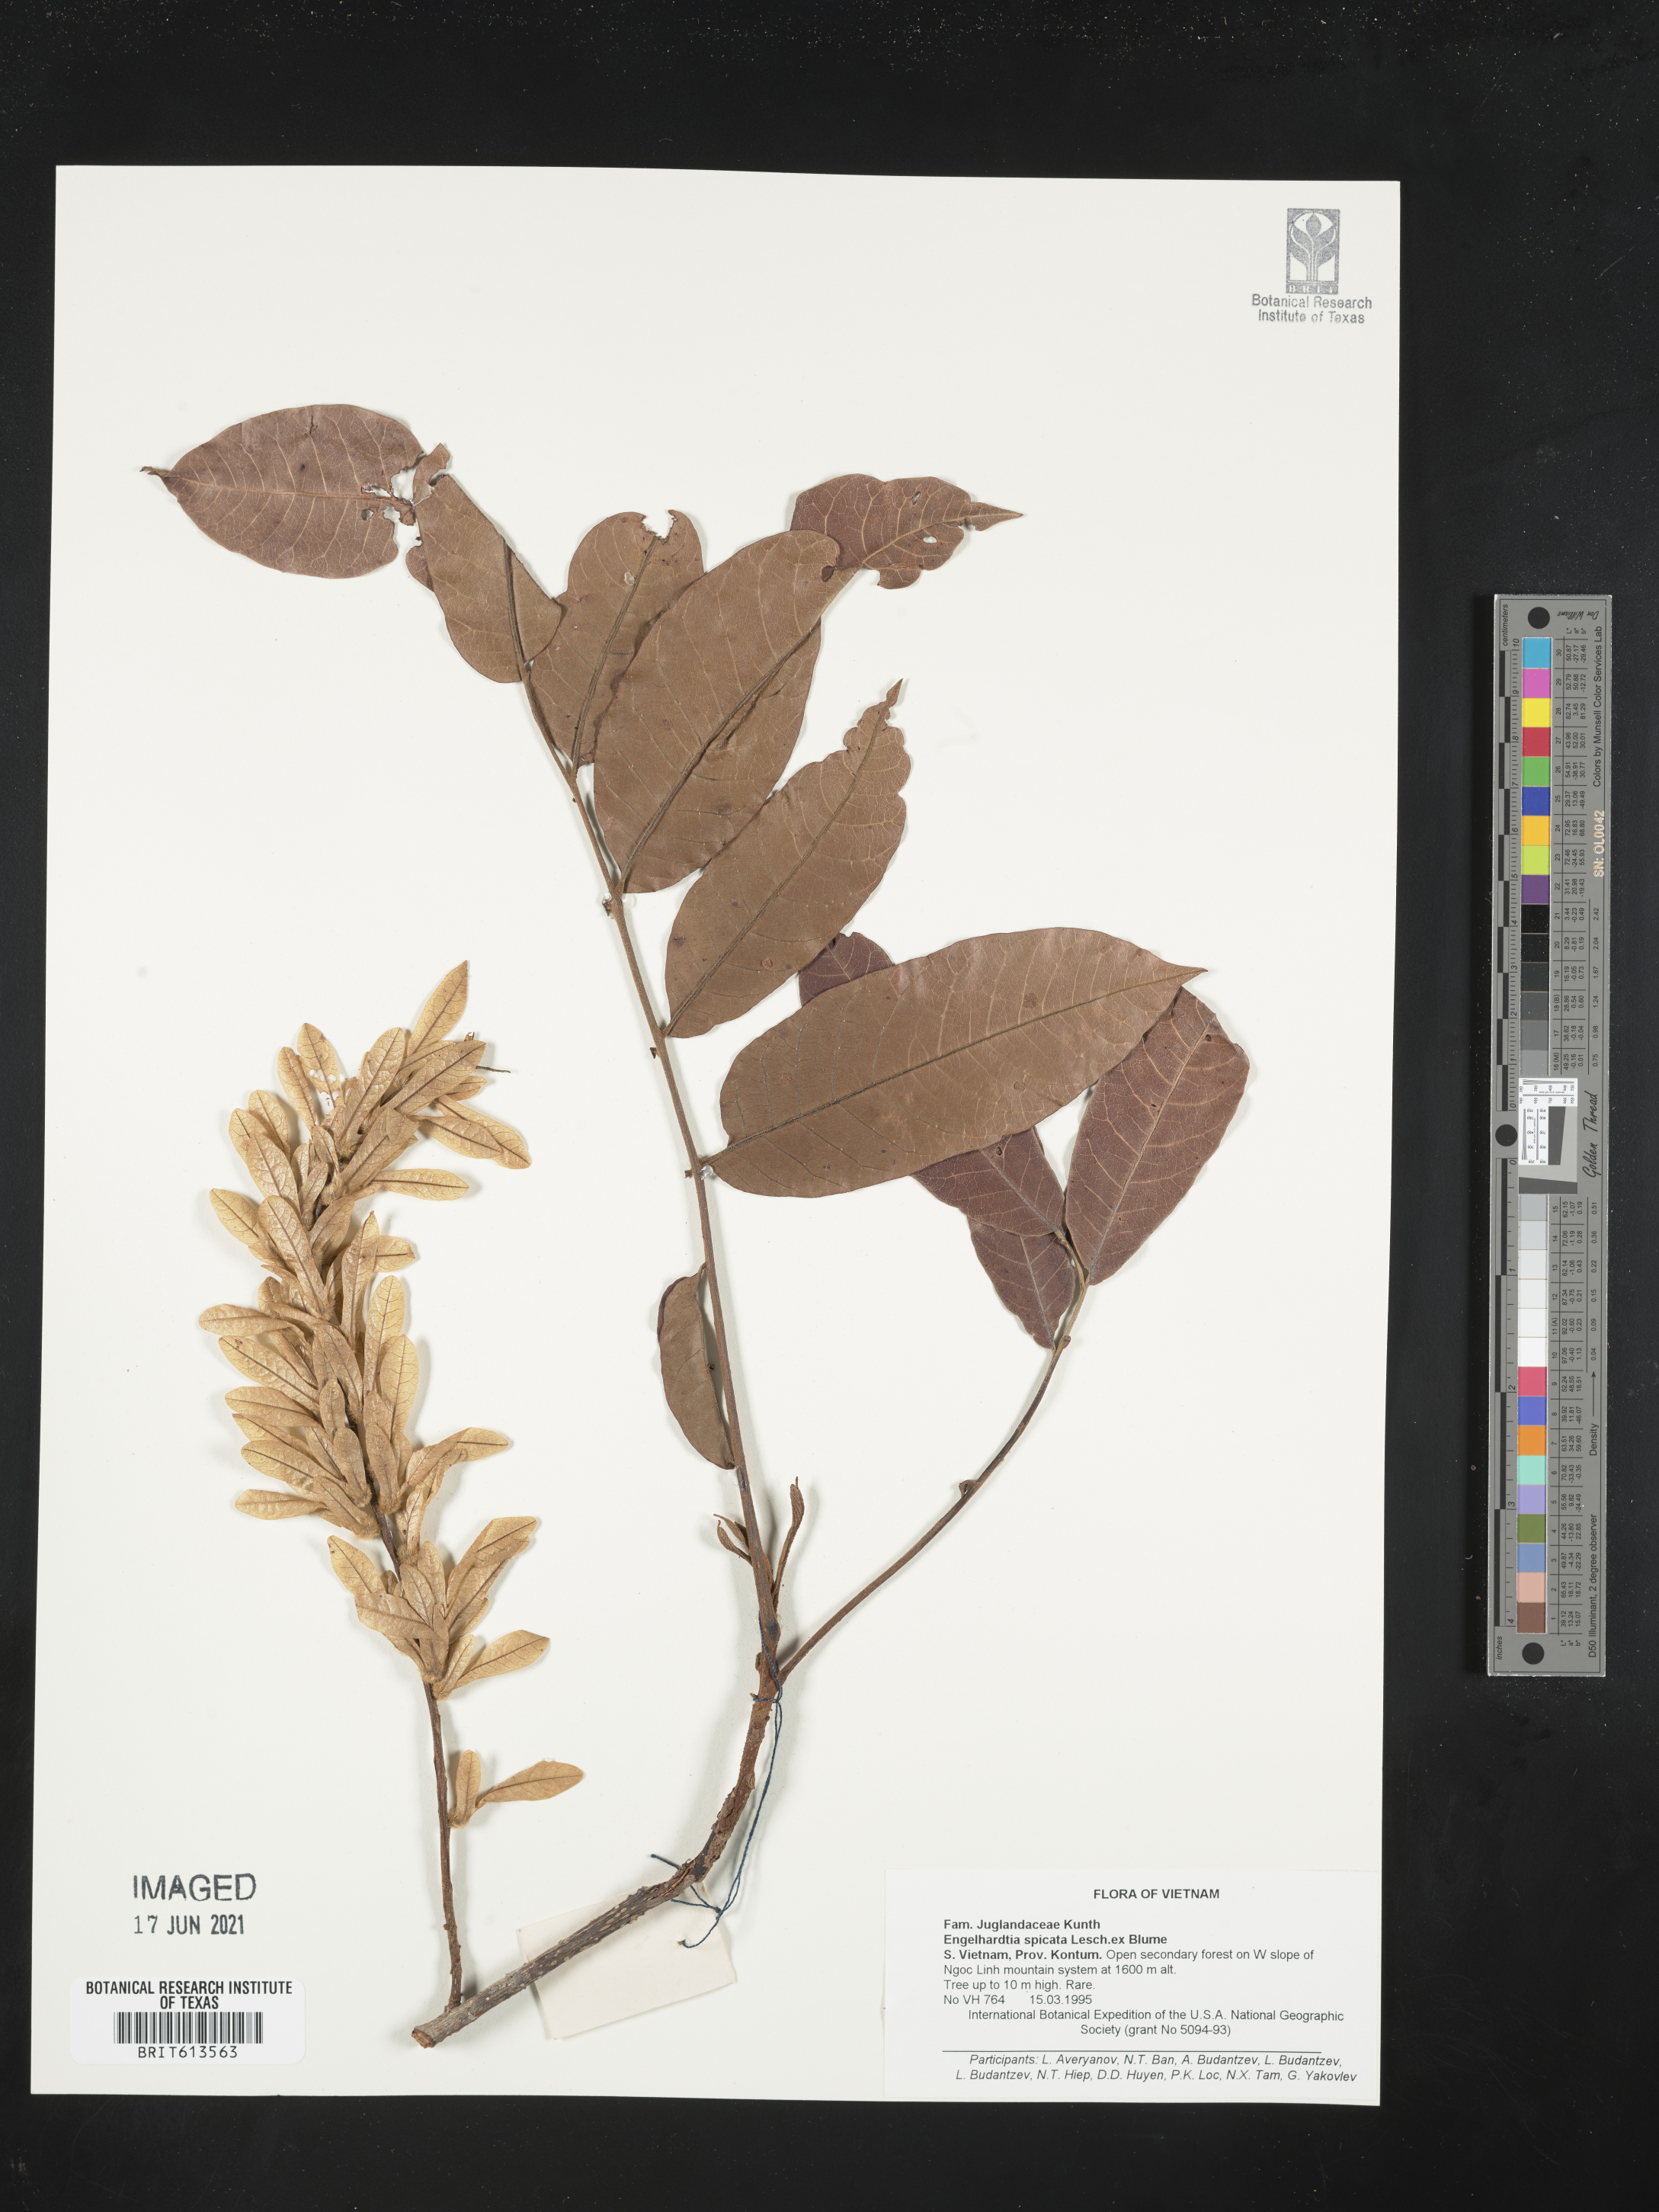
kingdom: Plantae
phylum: Tracheophyta
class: Magnoliopsida
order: Fagales
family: Juglandaceae
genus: Engelhardtia
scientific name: Engelhardtia spicata
